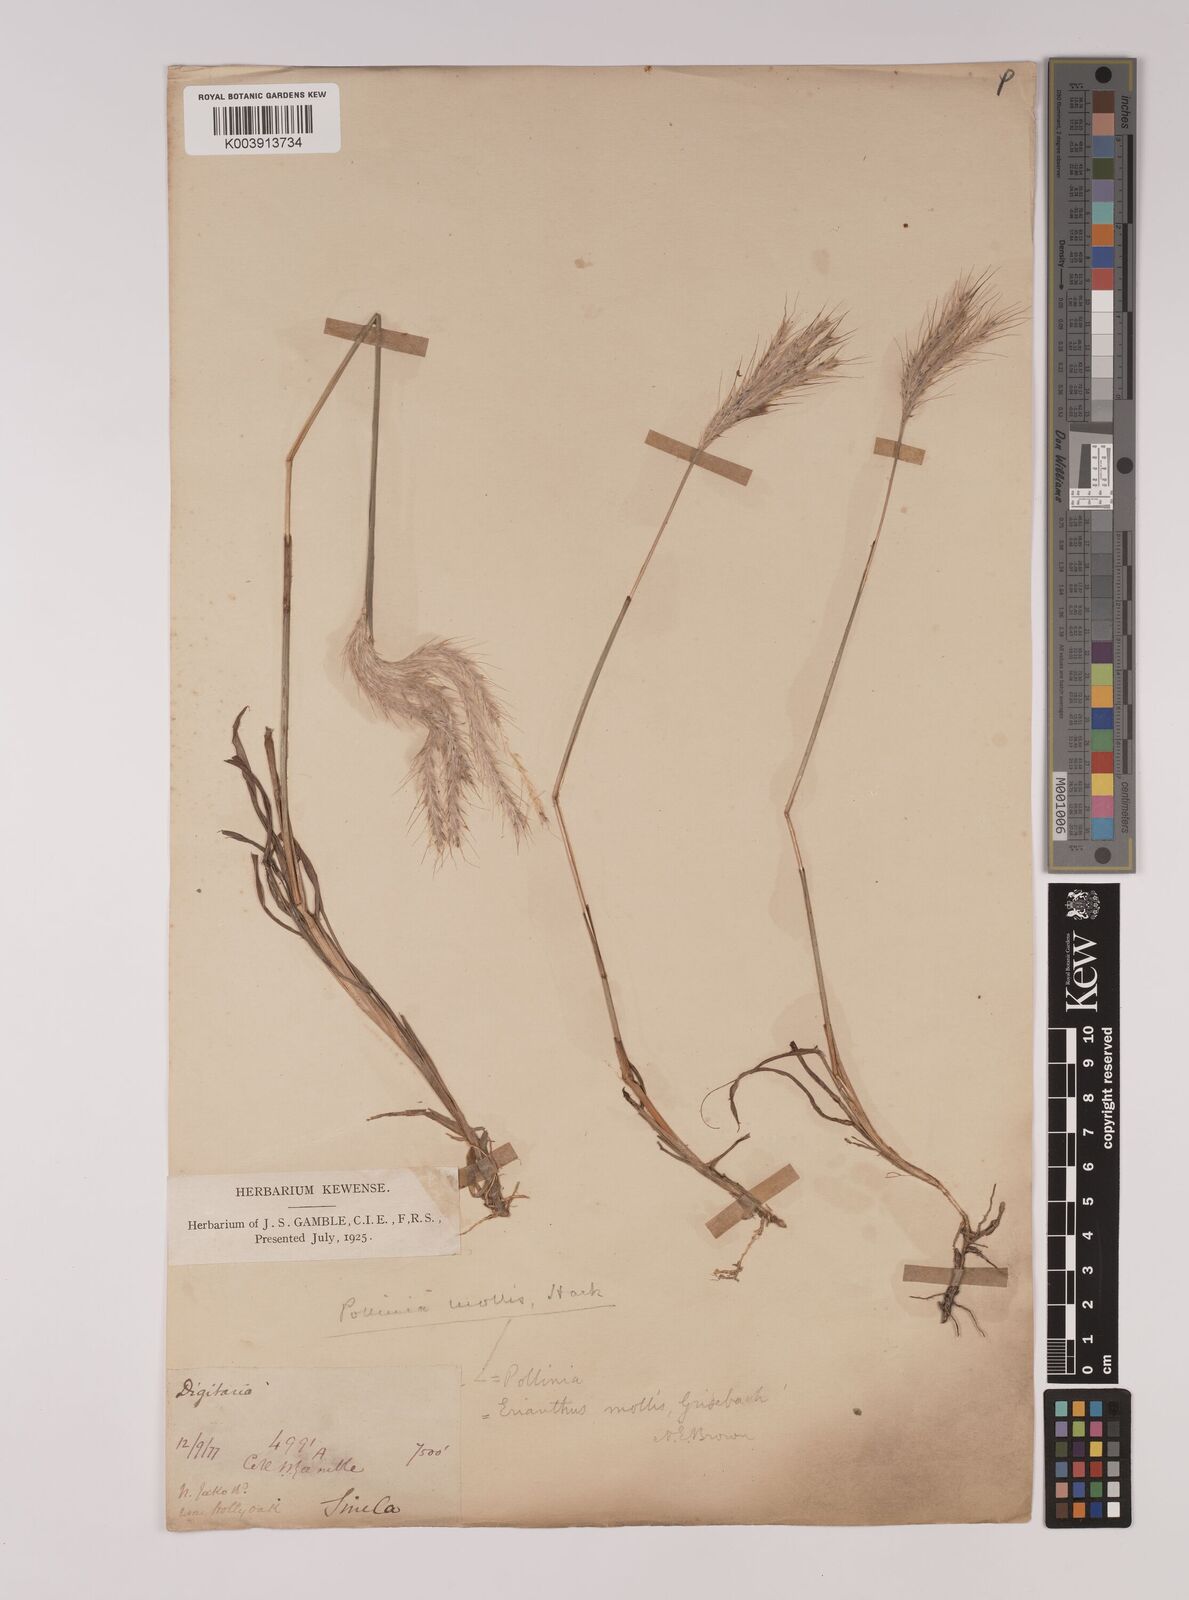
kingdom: Plantae
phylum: Tracheophyta
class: Liliopsida
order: Poales
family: Poaceae
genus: Eulalia
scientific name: Eulalia mollis
